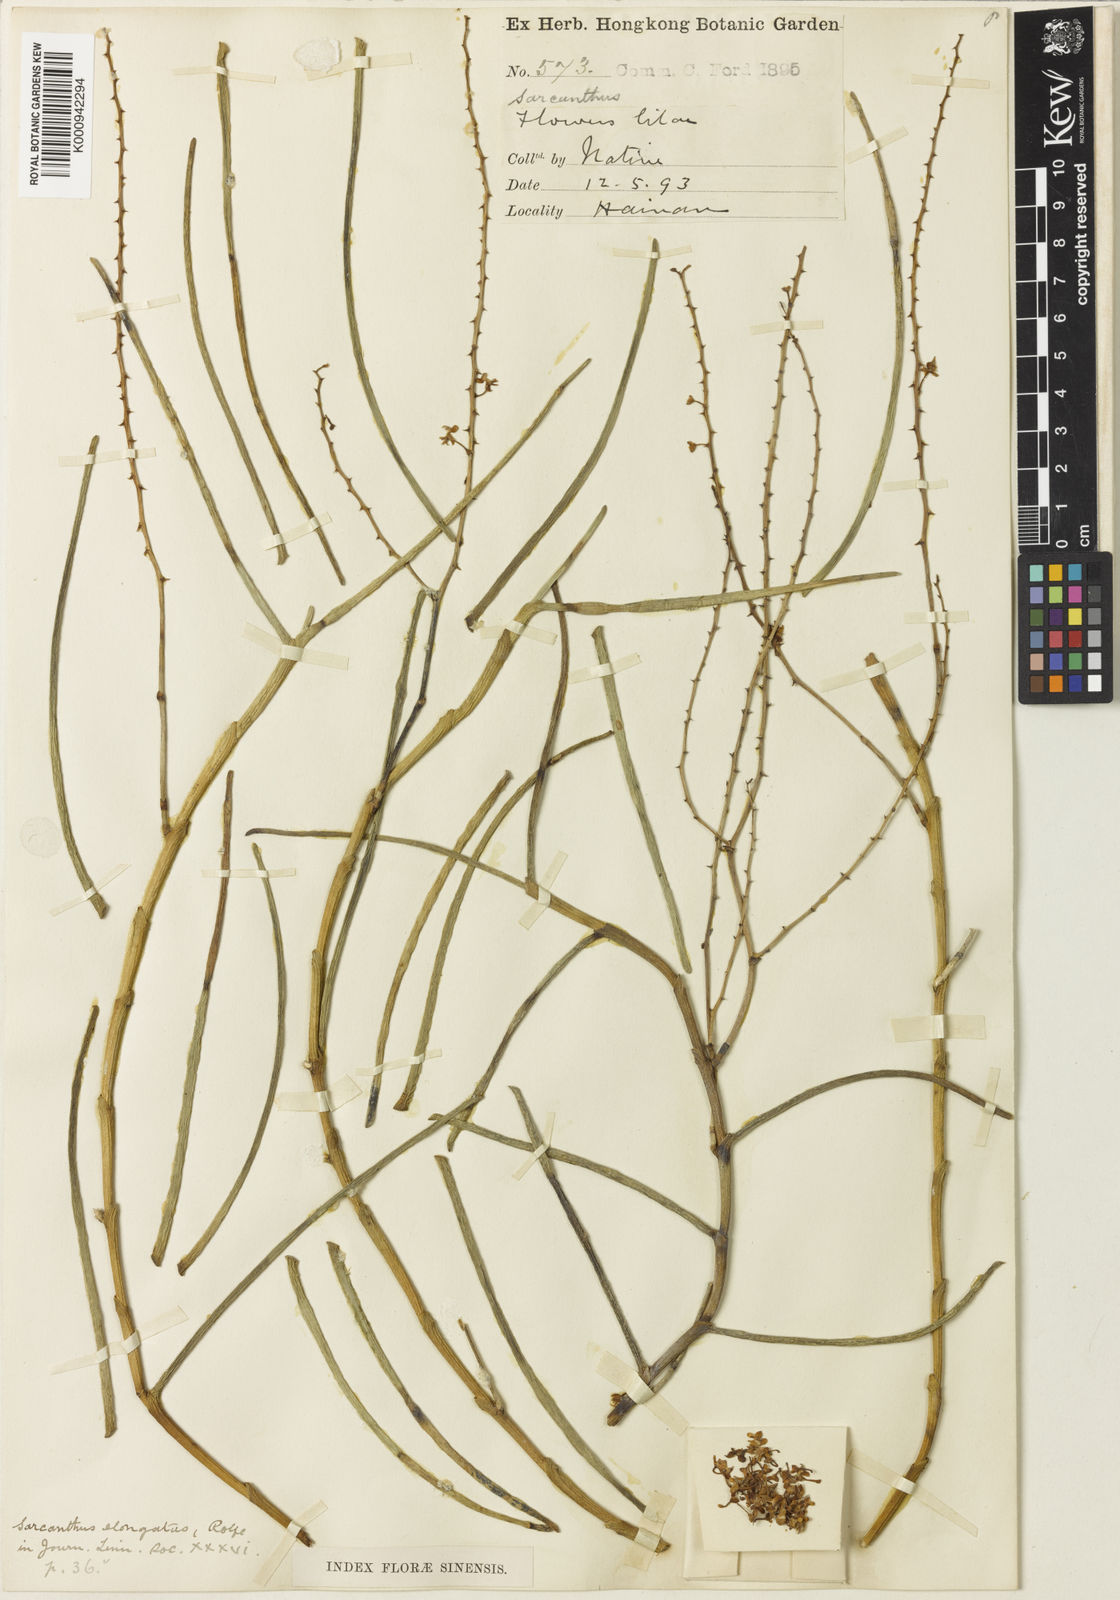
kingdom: Plantae
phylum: Tracheophyta
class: Liliopsida
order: Asparagales
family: Orchidaceae
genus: Cleisostoma
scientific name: Cleisostoma williamsonii
